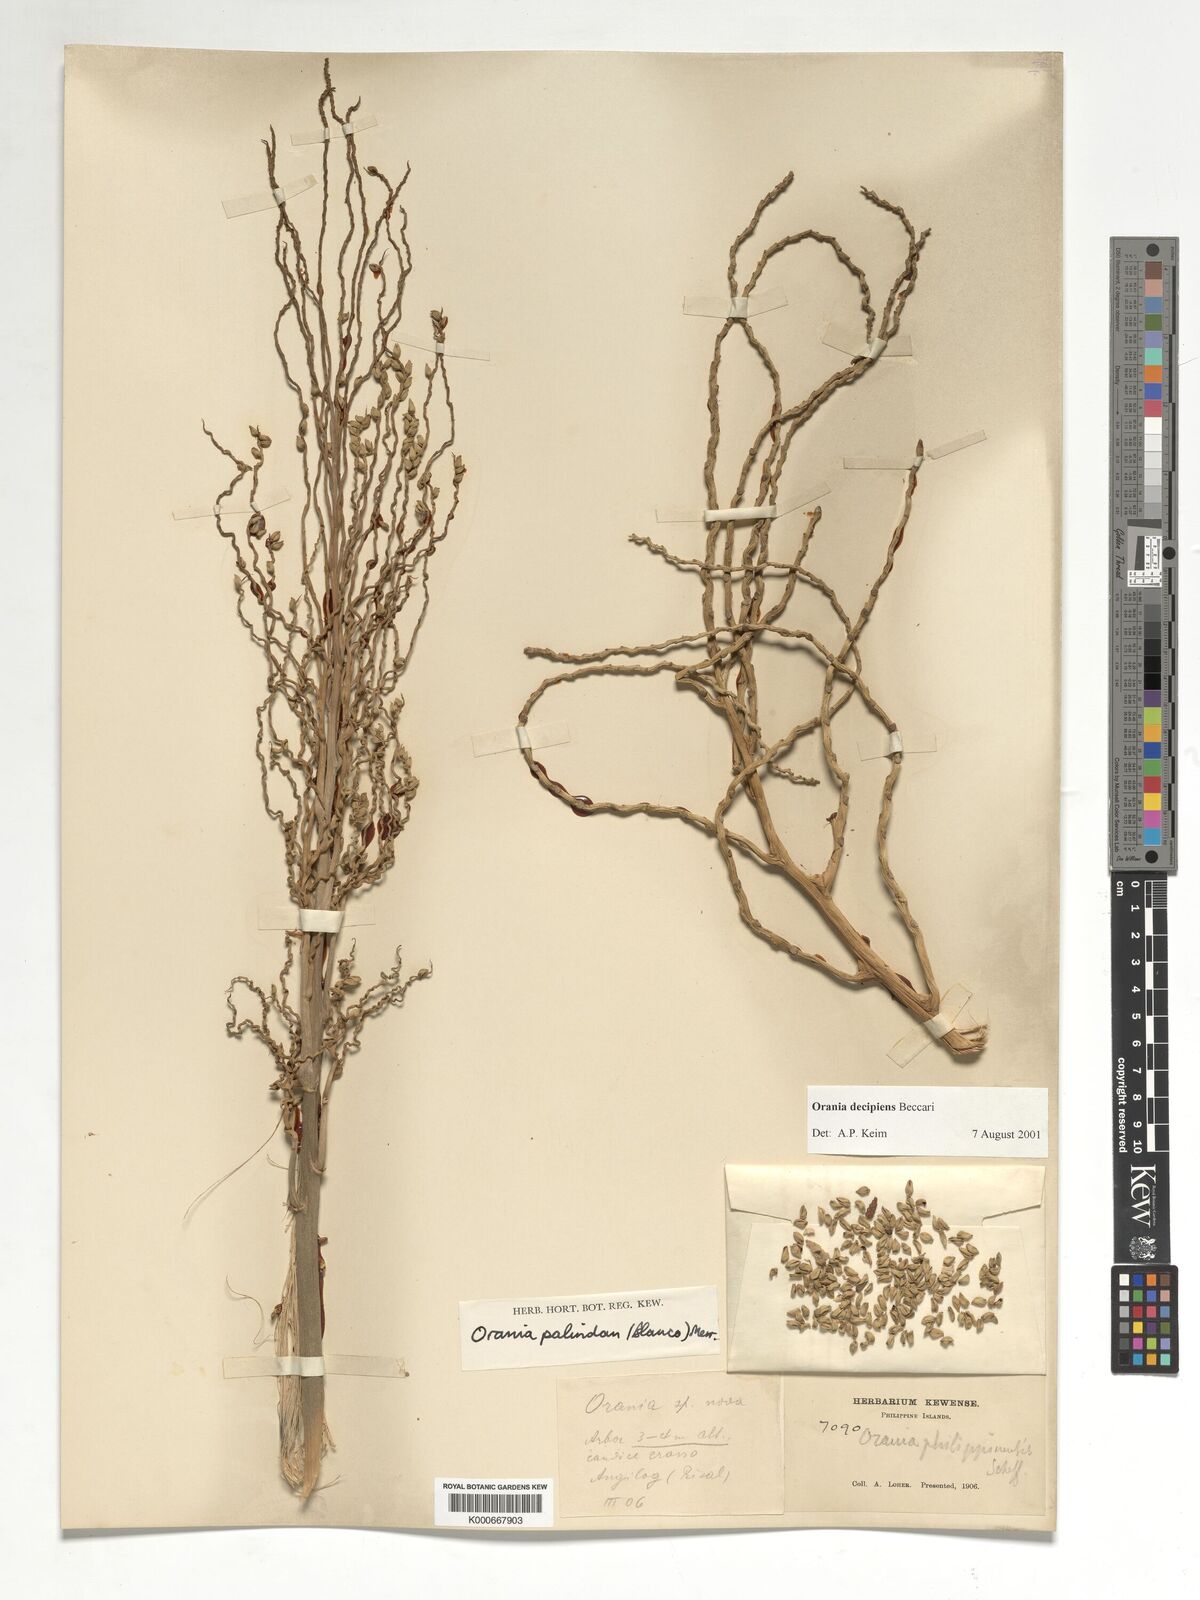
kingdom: Plantae
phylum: Tracheophyta
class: Liliopsida
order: Arecales
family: Arecaceae
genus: Orania
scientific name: Orania decipiens
